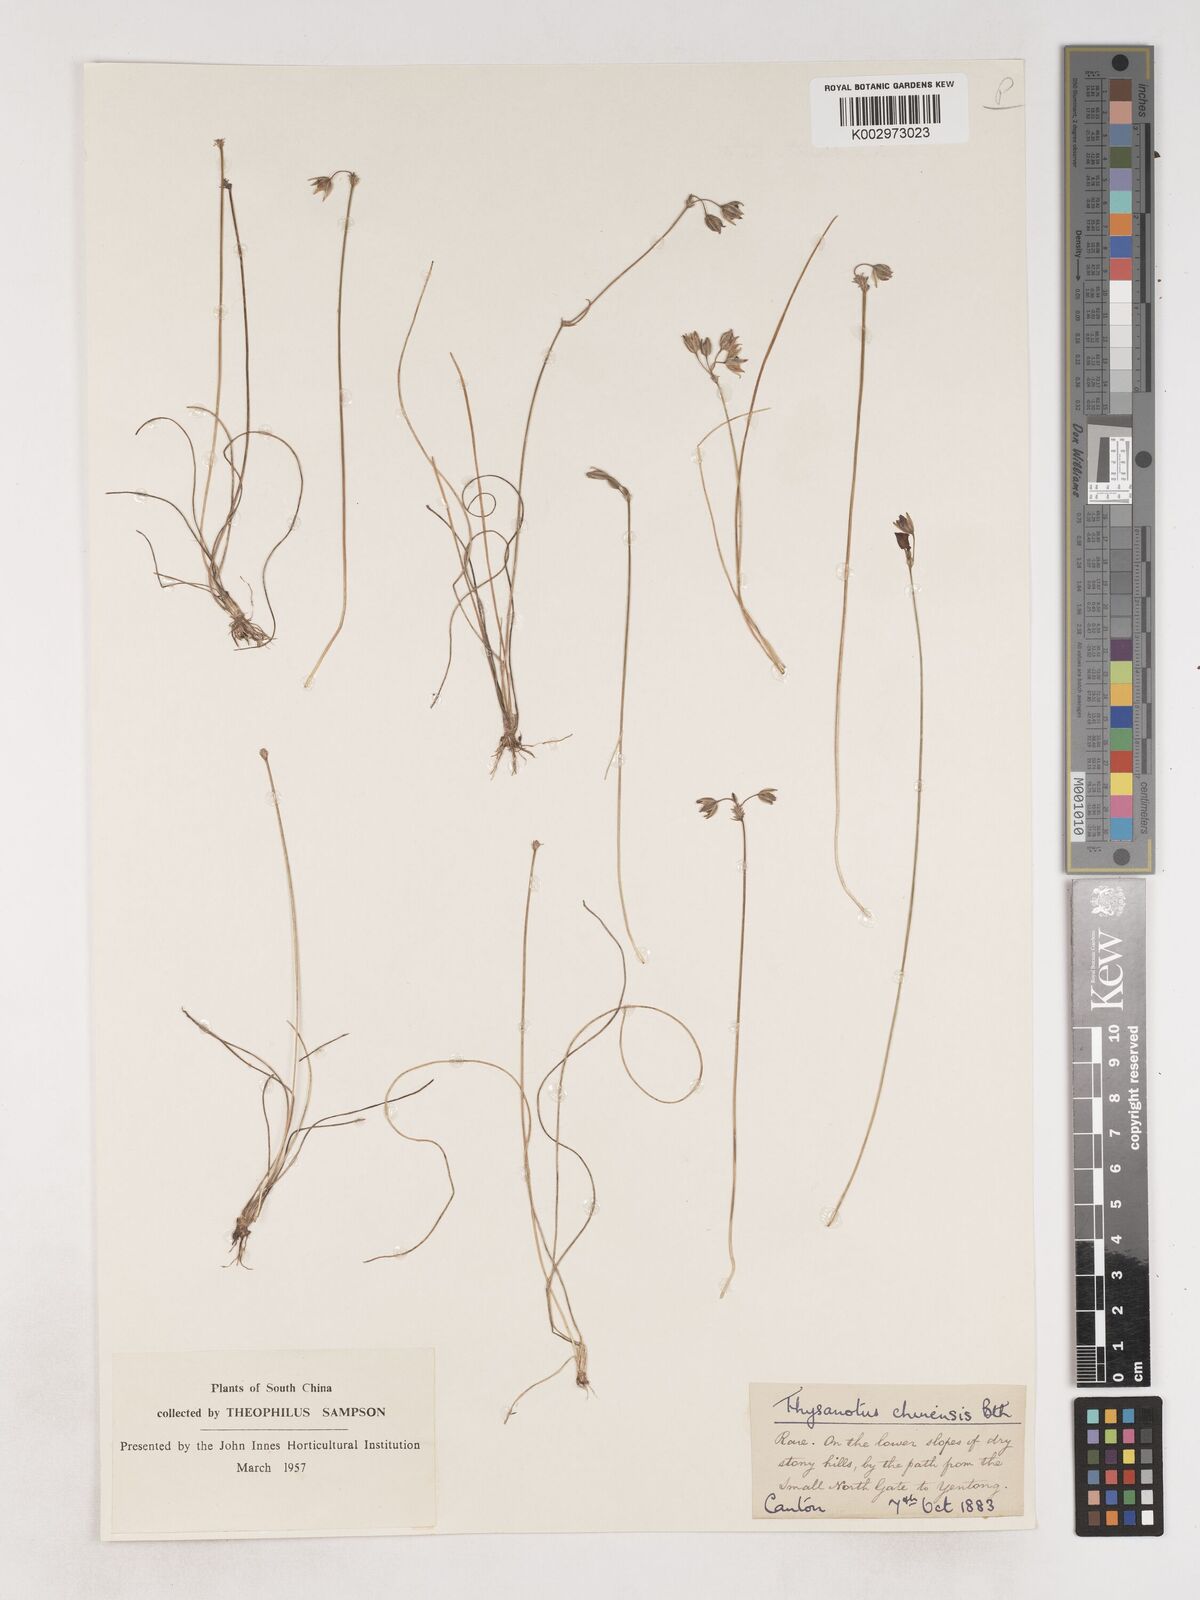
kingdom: Plantae
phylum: Tracheophyta
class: Liliopsida
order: Asparagales
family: Asparagaceae
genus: Thysanotus
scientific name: Thysanotus chinensis
